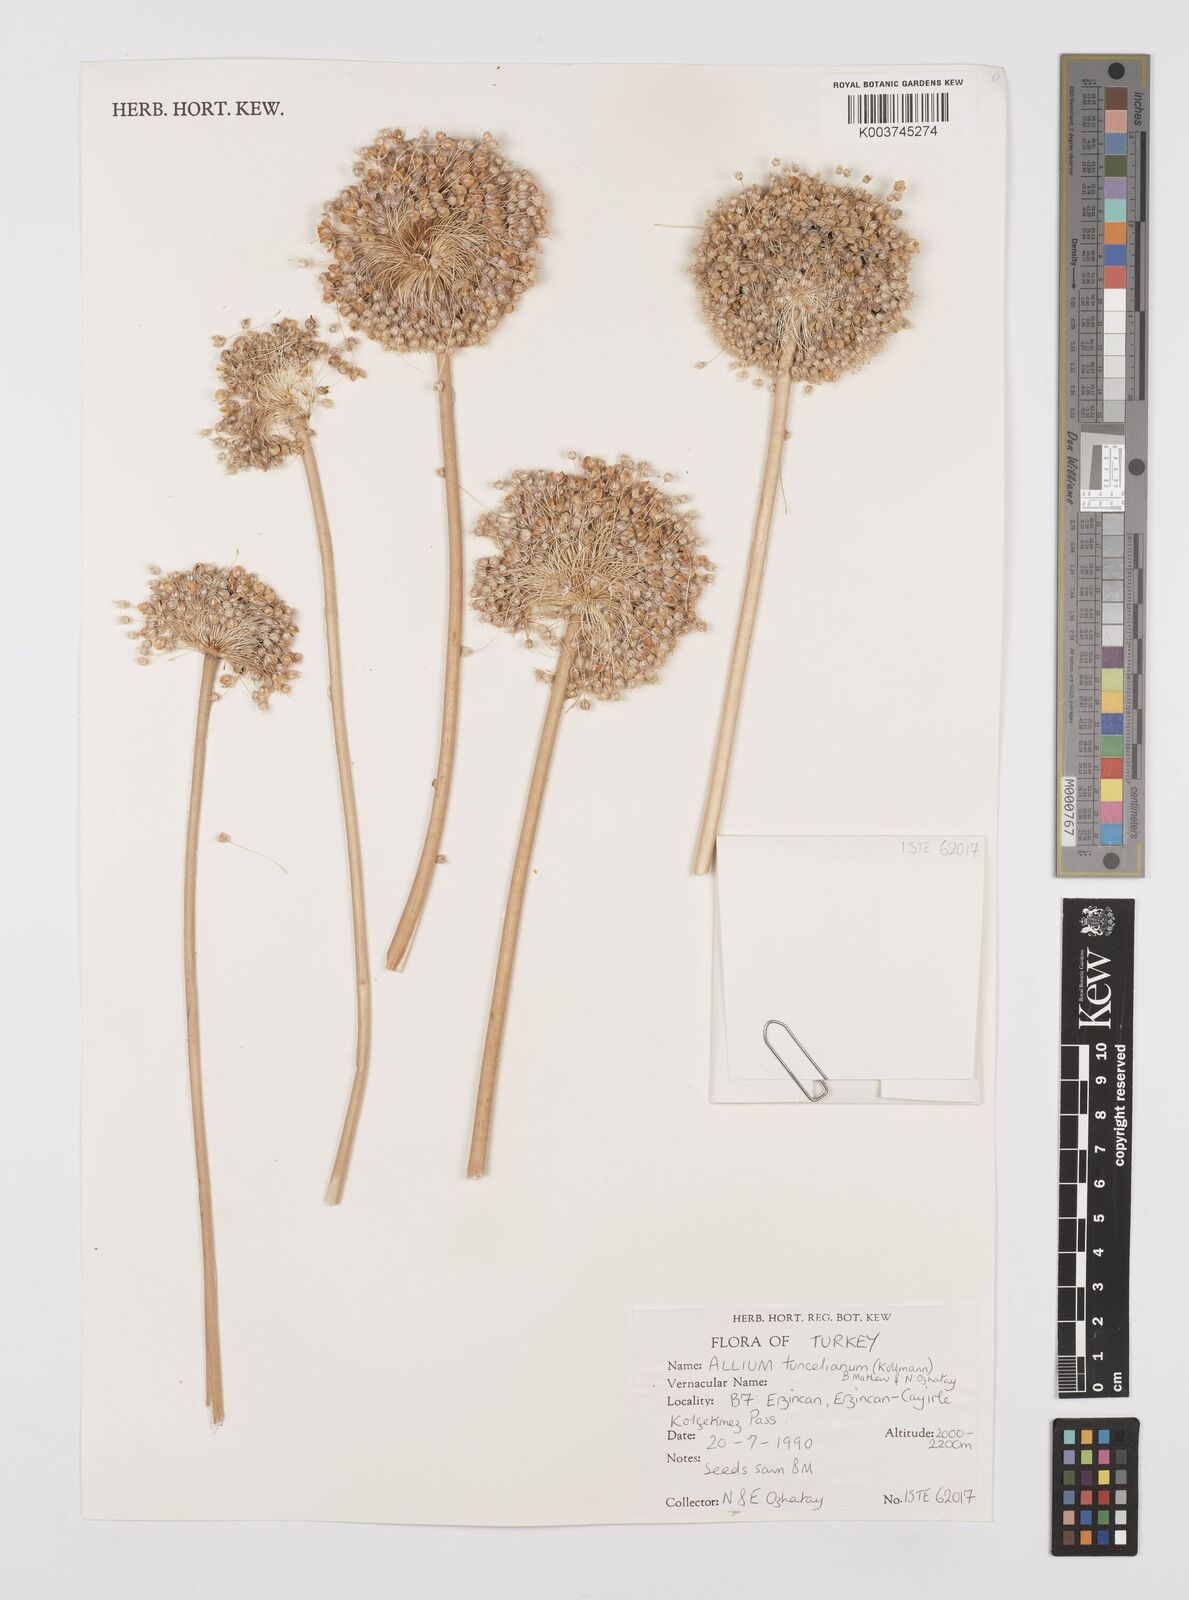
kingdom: Plantae
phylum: Tracheophyta
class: Liliopsida
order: Asparagales
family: Amaryllidaceae
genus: Allium
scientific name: Allium tuncelianum
